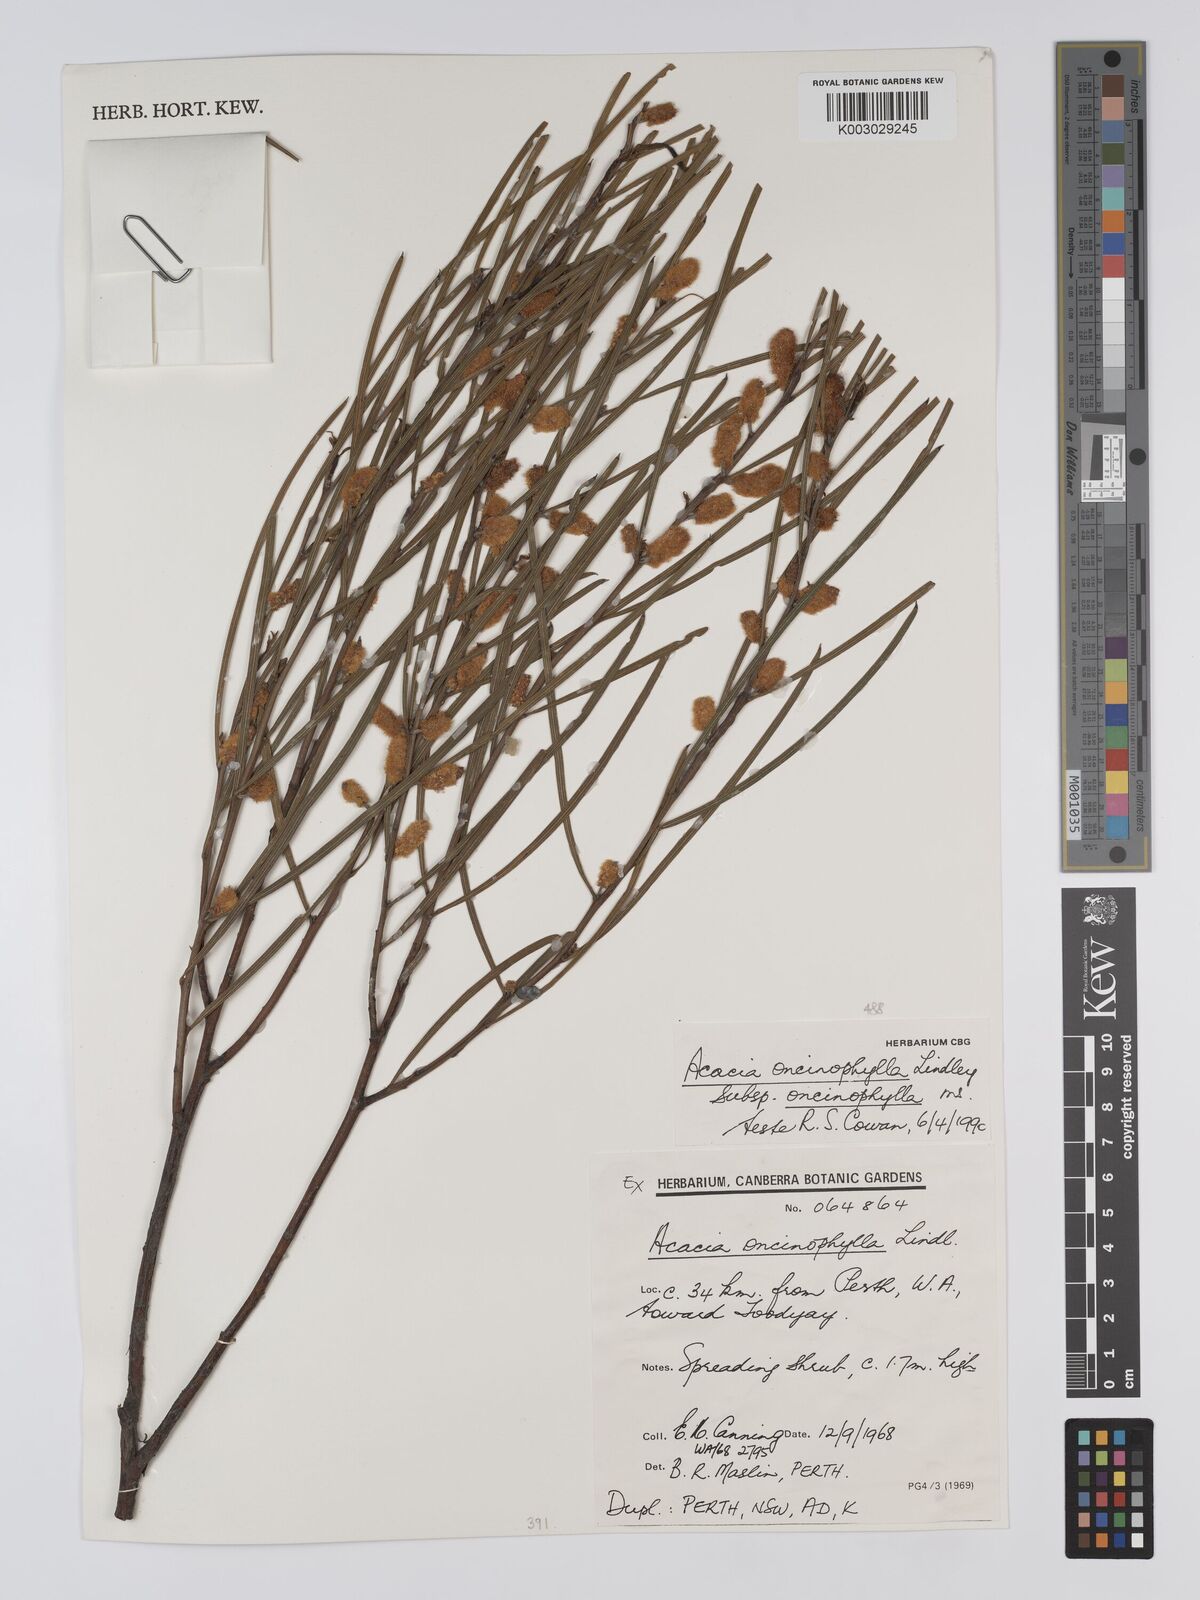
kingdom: Plantae
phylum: Tracheophyta
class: Magnoliopsida
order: Fabales
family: Fabaceae
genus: Acacia
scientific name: Acacia oncinophylla
